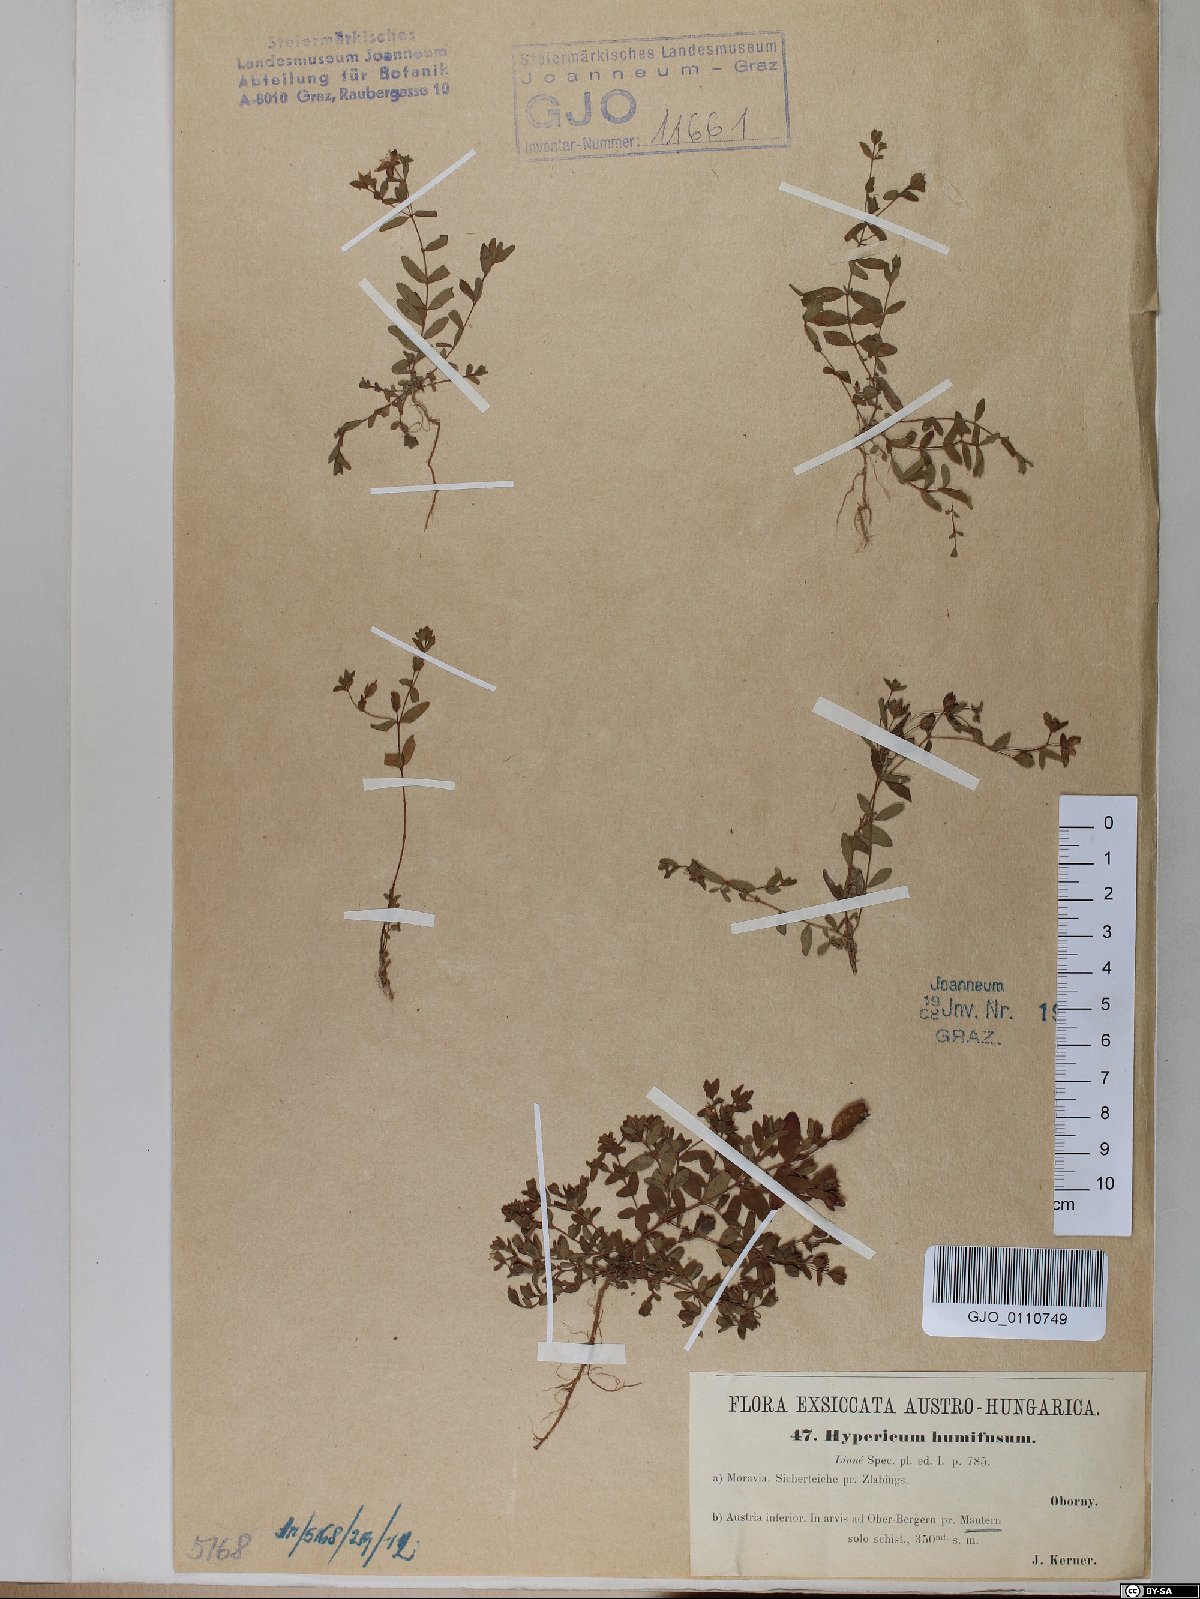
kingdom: Plantae
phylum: Tracheophyta
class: Magnoliopsida
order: Malpighiales
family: Hypericaceae
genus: Hypericum
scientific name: Hypericum humifusum
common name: Trailing st. john's-wort
